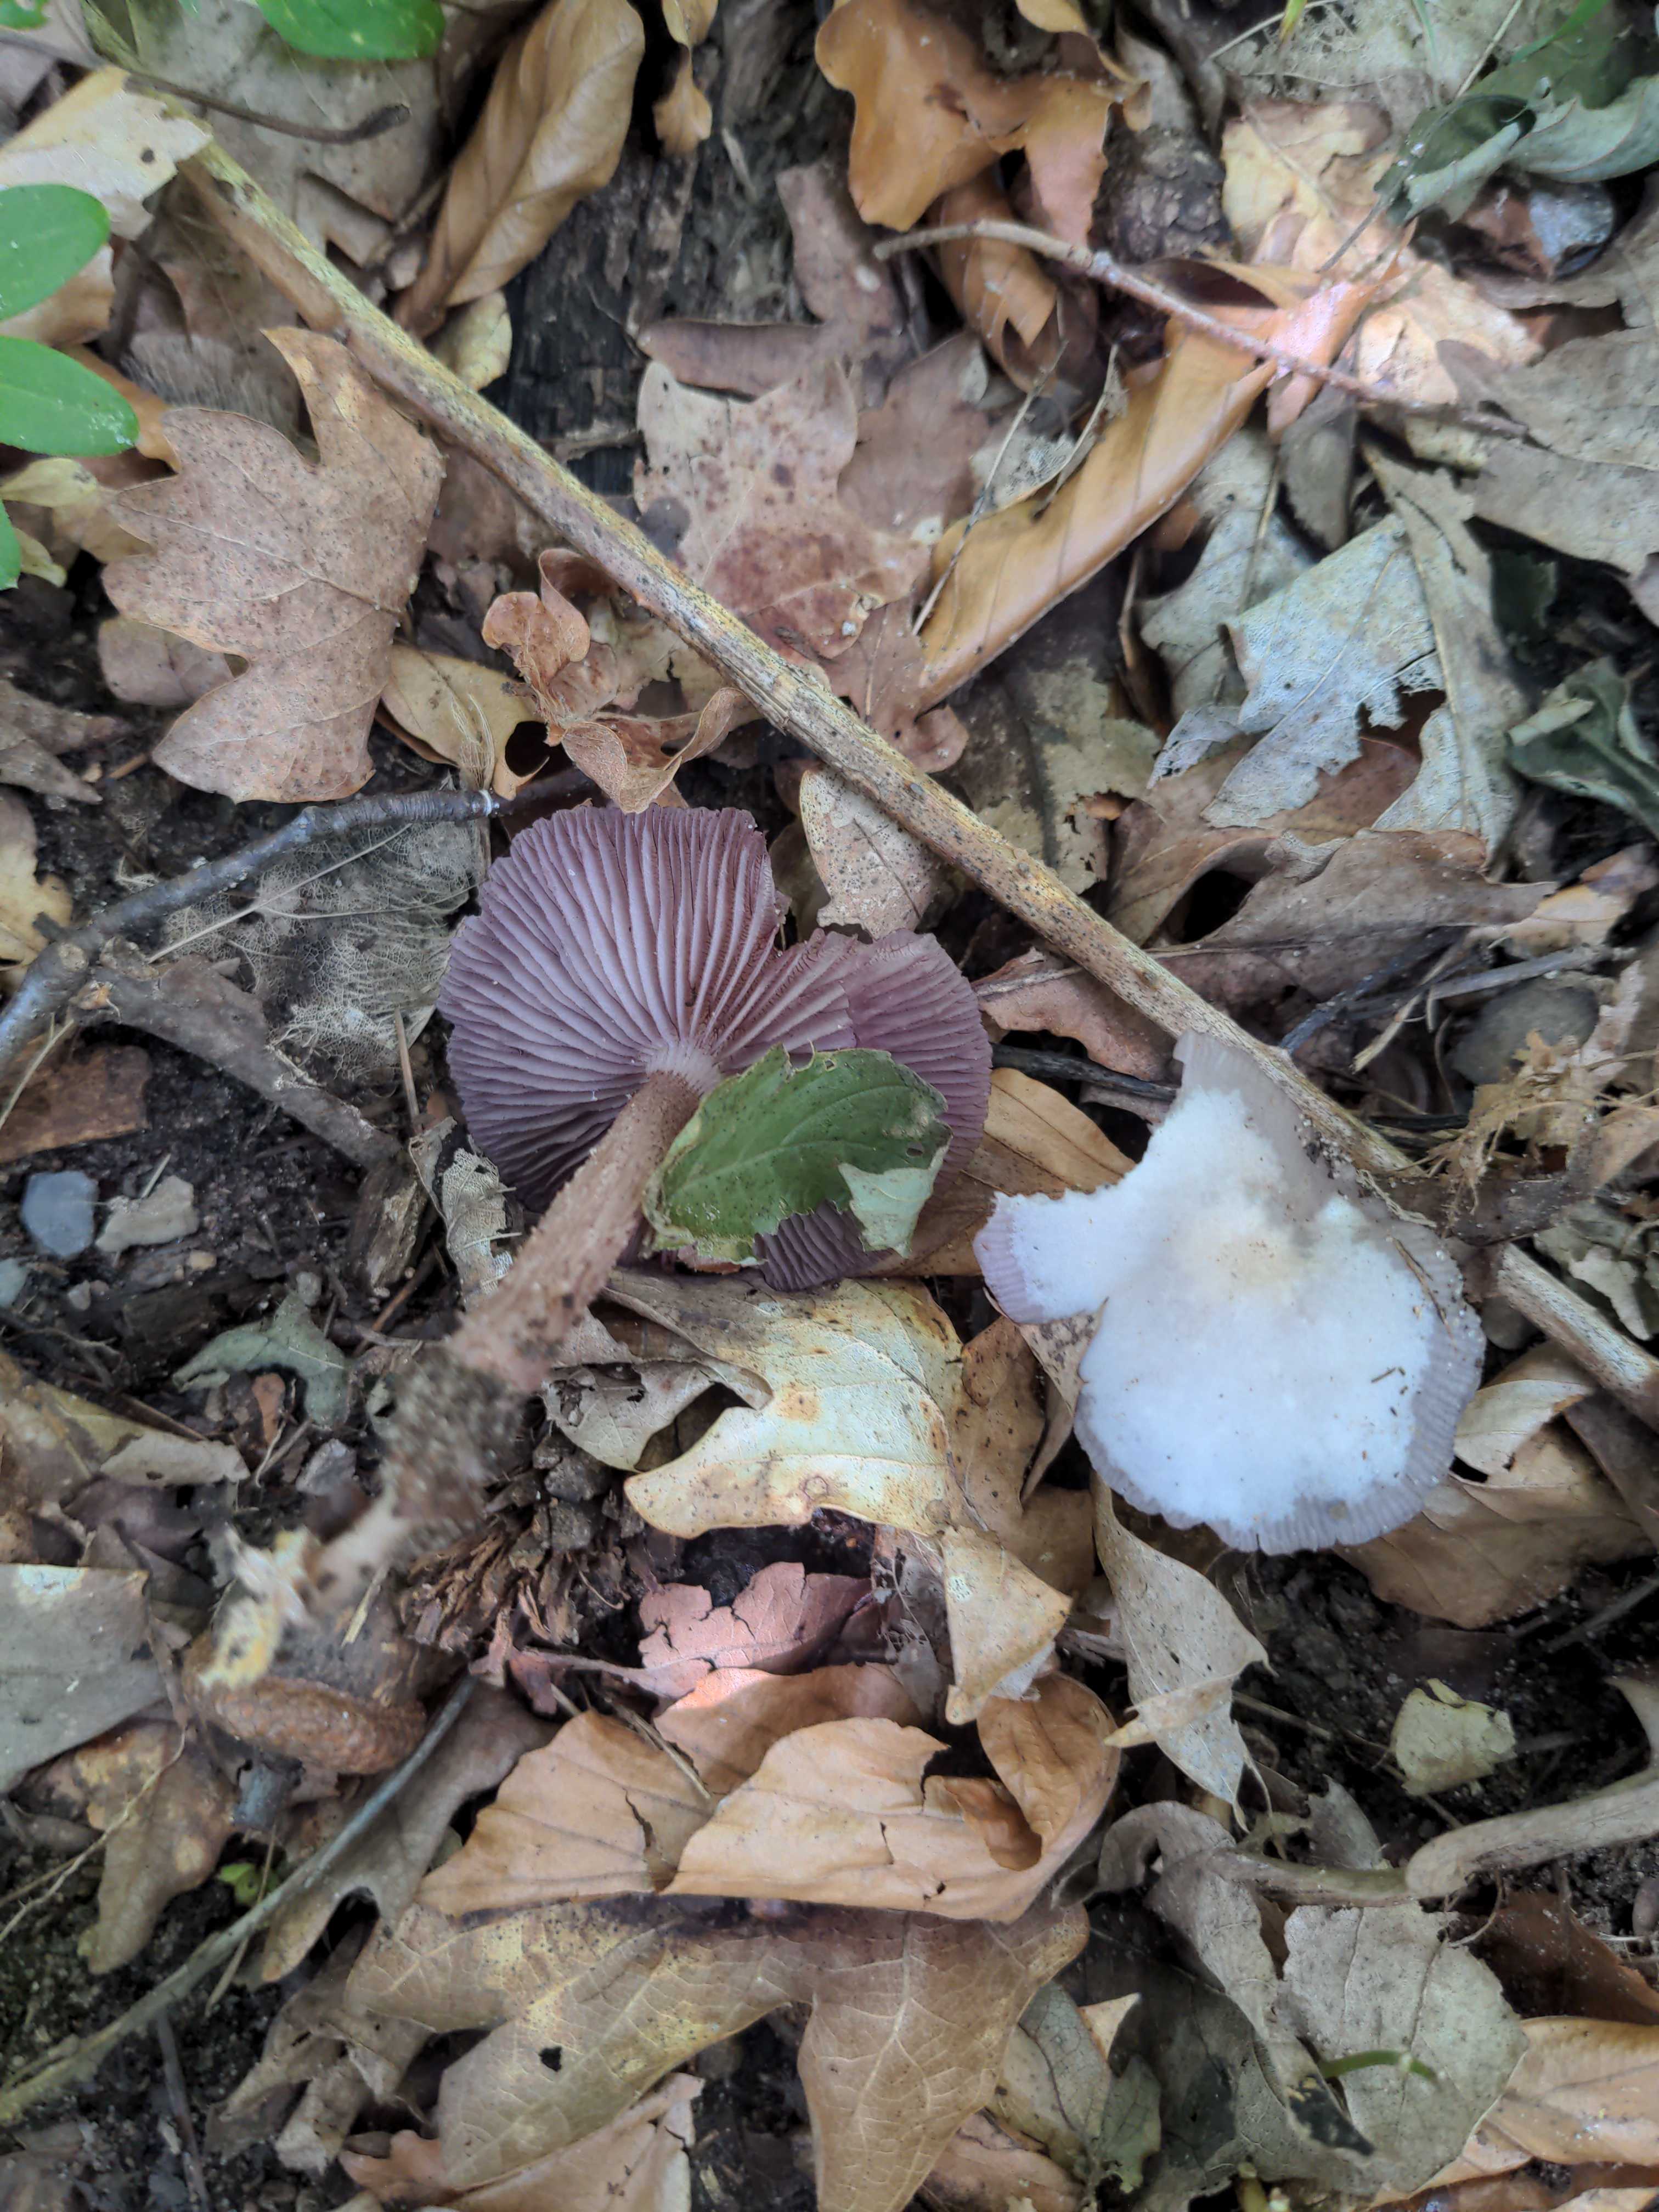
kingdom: Fungi
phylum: Basidiomycota
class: Agaricomycetes
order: Agaricales
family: Mycenaceae
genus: Mycena
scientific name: Mycena pelianthina
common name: mørkbladet huesvamp
